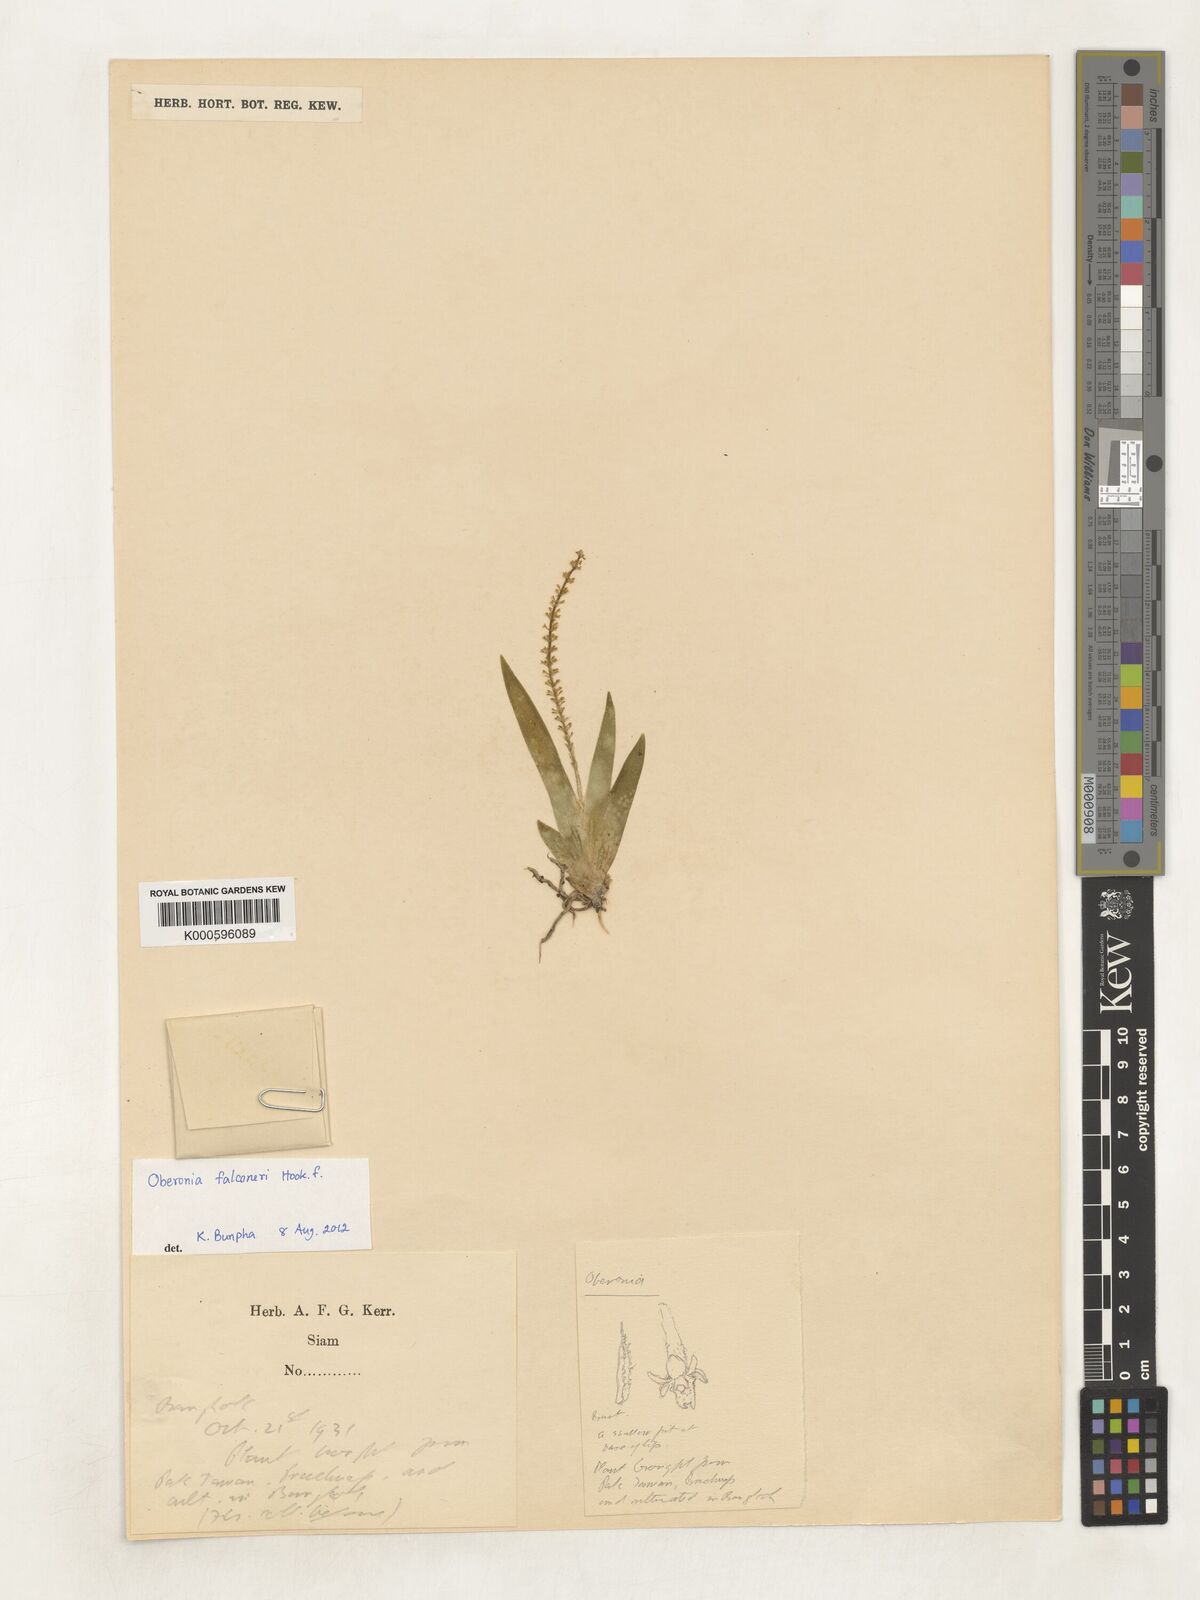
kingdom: Plantae
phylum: Tracheophyta
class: Liliopsida
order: Asparagales
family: Orchidaceae
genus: Oberonia
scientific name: Oberonia
